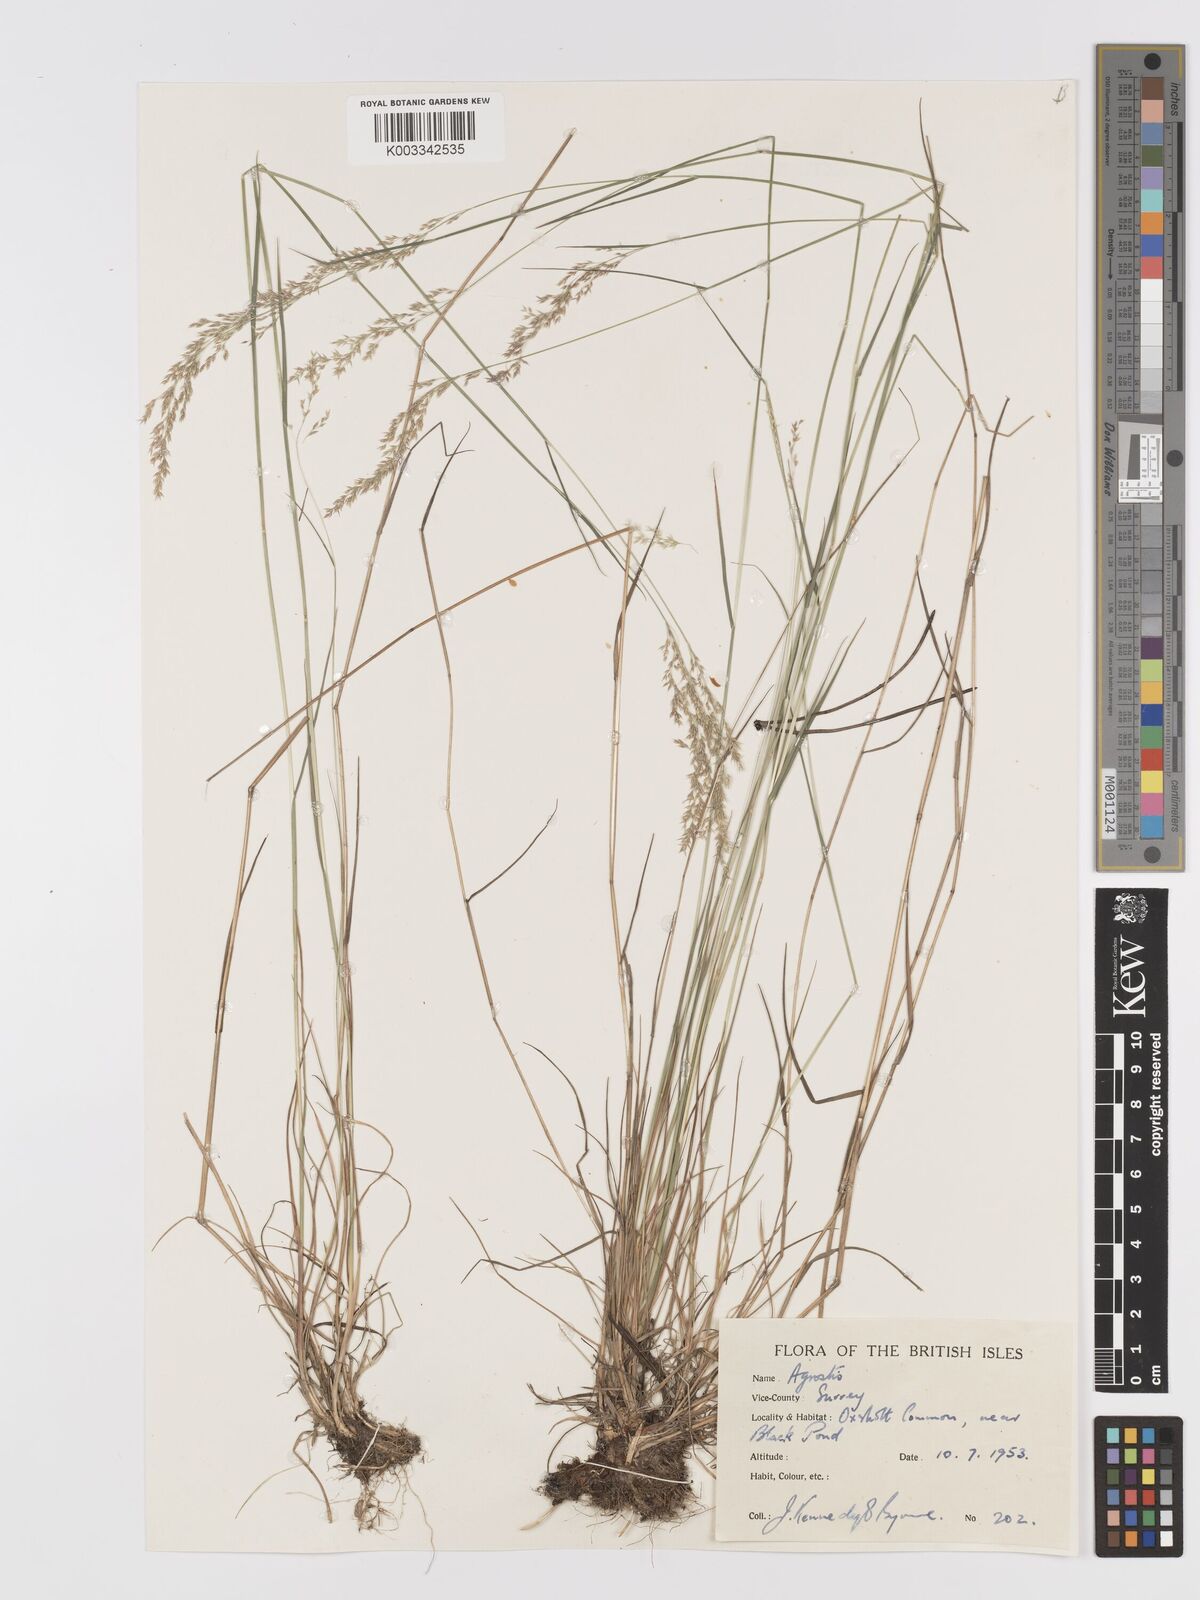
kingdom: Plantae
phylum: Tracheophyta
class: Liliopsida
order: Poales
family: Poaceae
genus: Agrostis
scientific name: Agrostis
